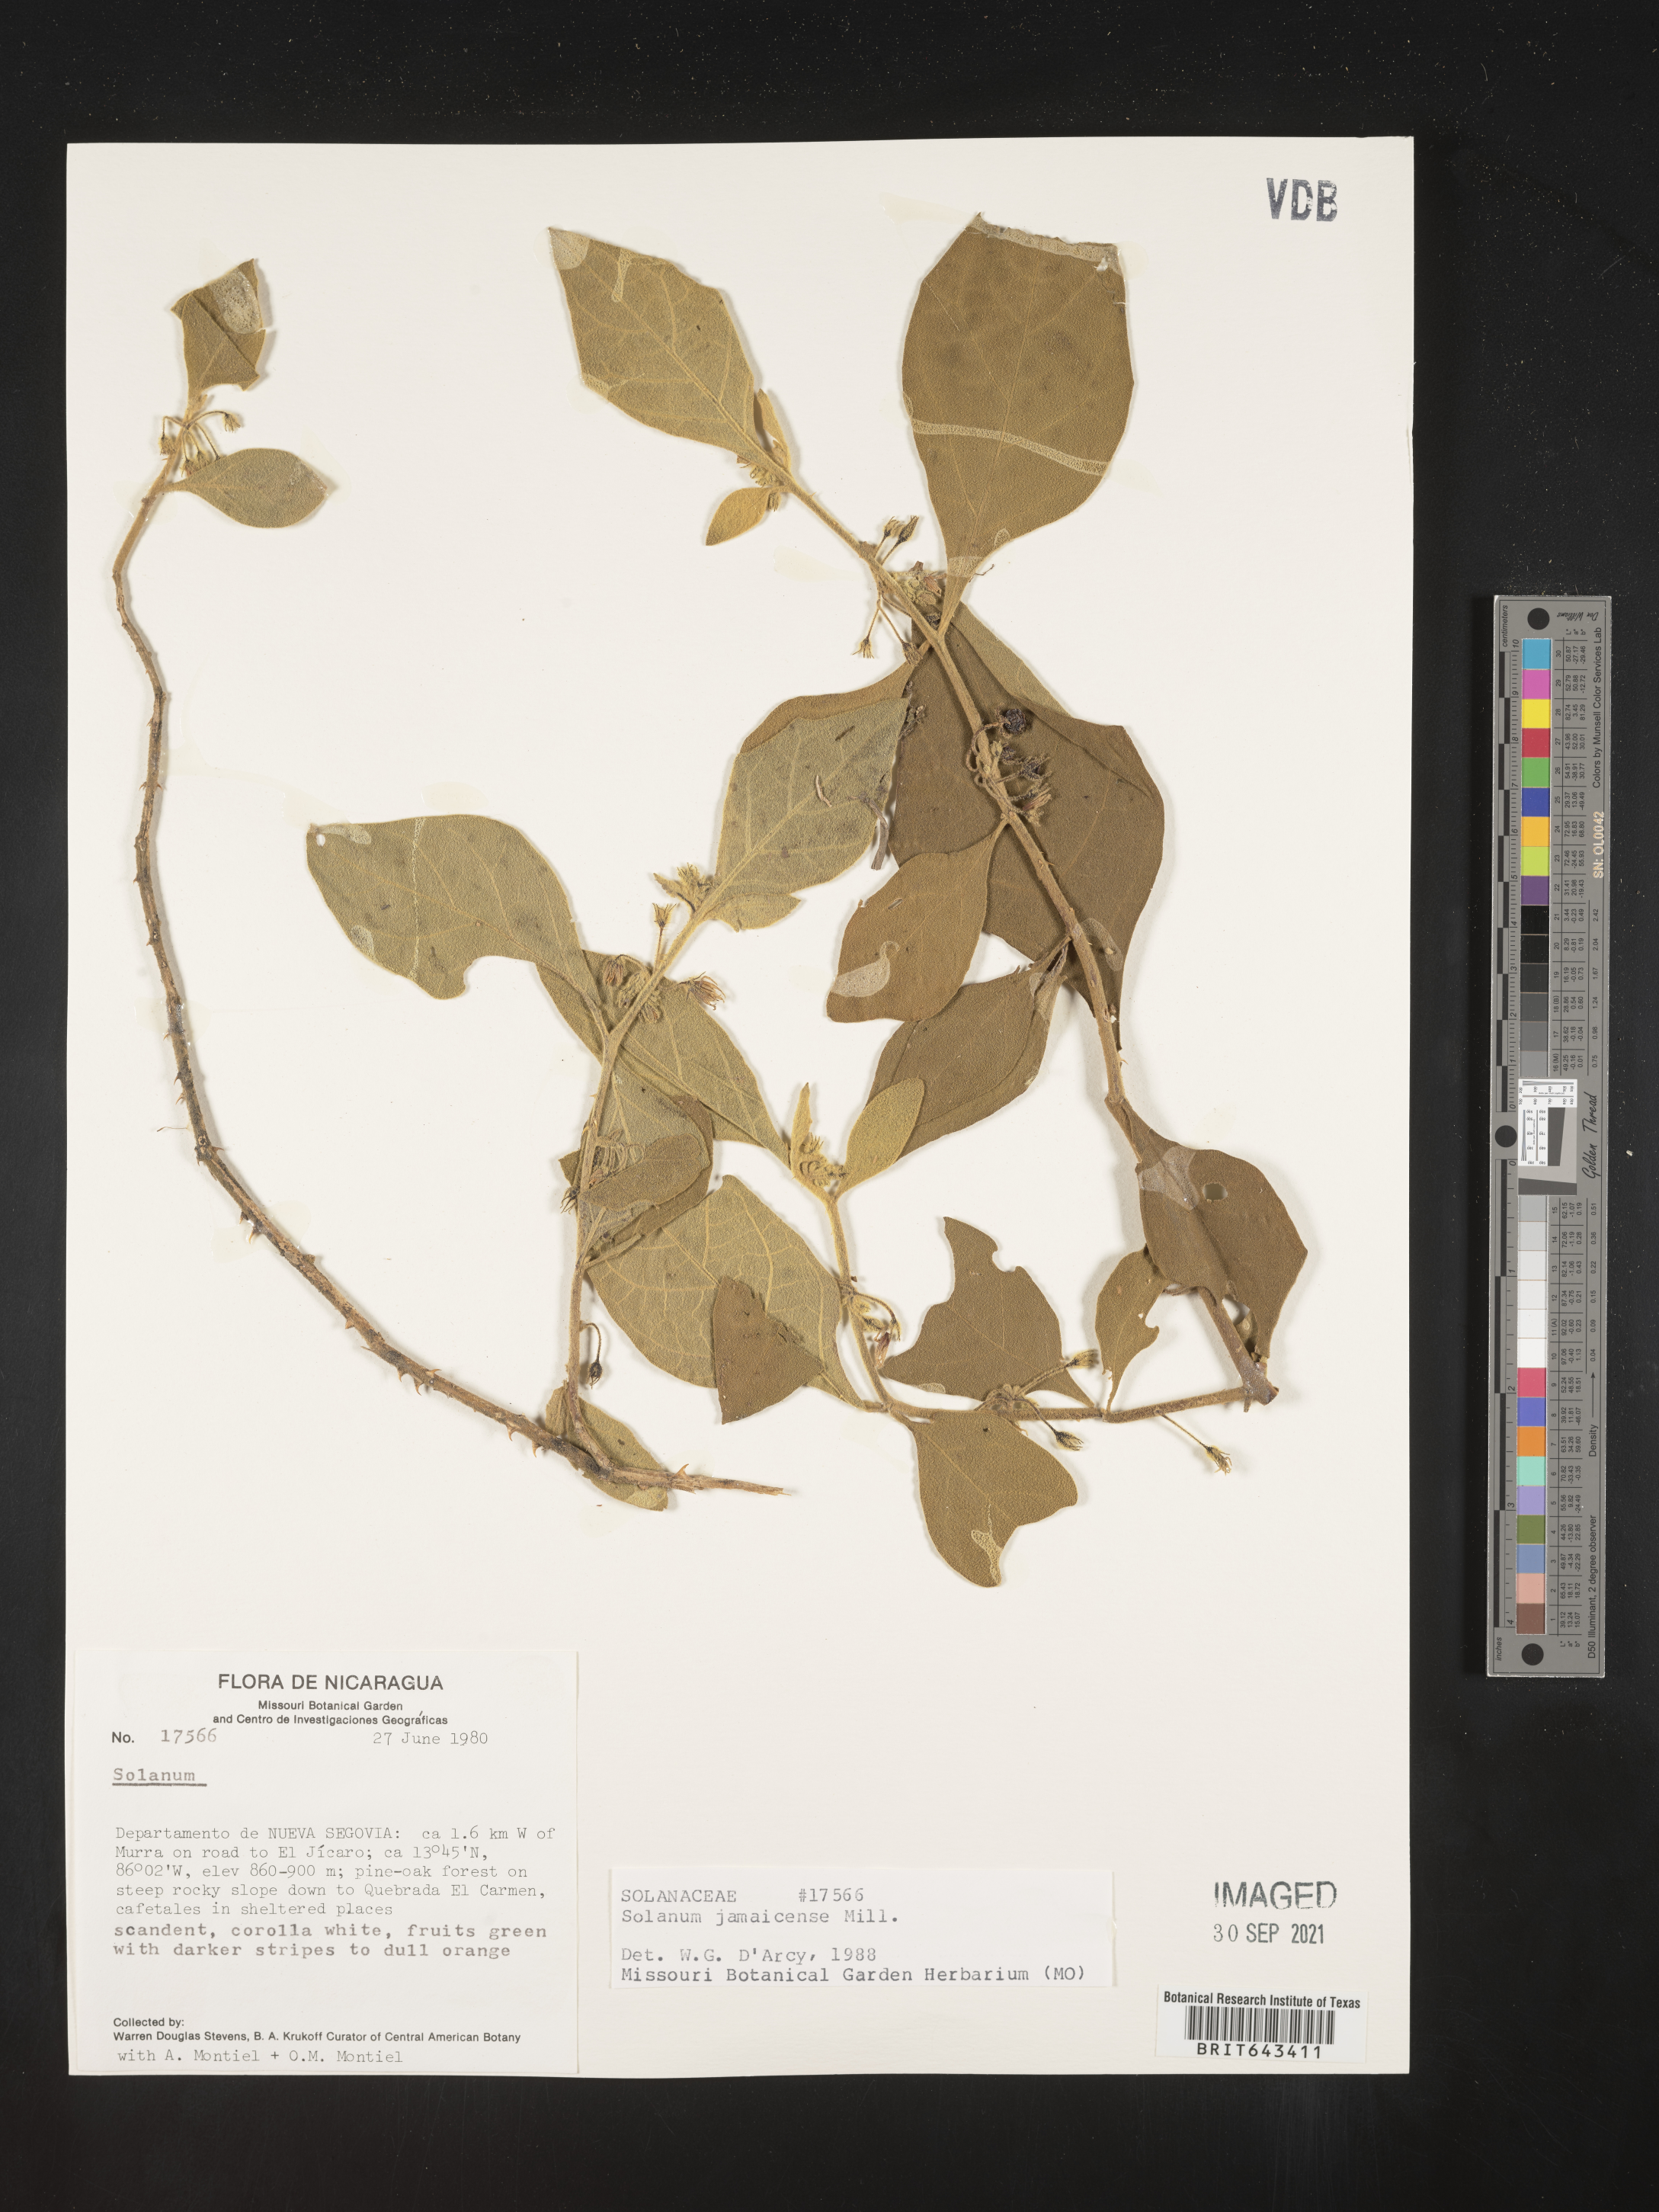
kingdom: Plantae
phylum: Tracheophyta
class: Magnoliopsida
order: Solanales
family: Solanaceae
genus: Solanum
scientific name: Solanum
